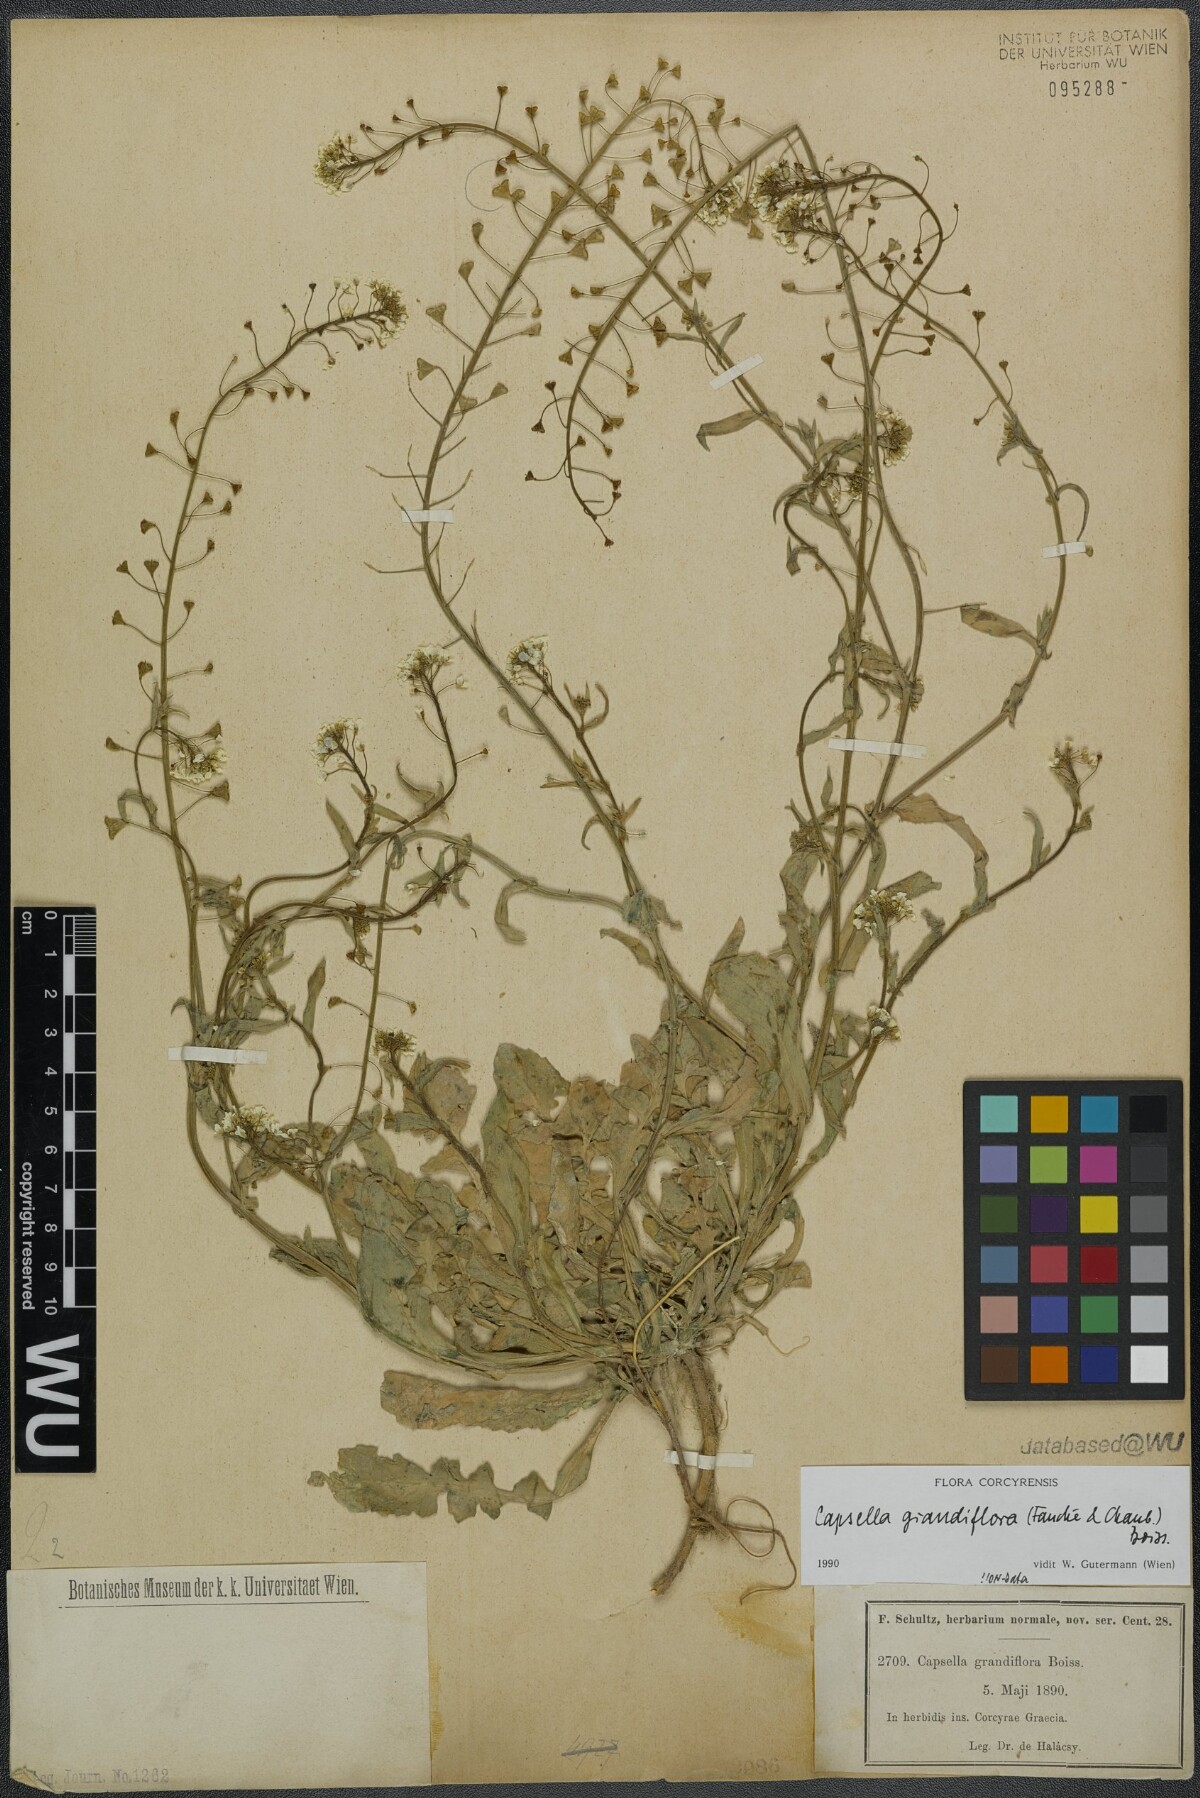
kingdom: Plantae
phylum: Tracheophyta
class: Magnoliopsida
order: Brassicales
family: Brassicaceae
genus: Capsella
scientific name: Capsella grandiflora
